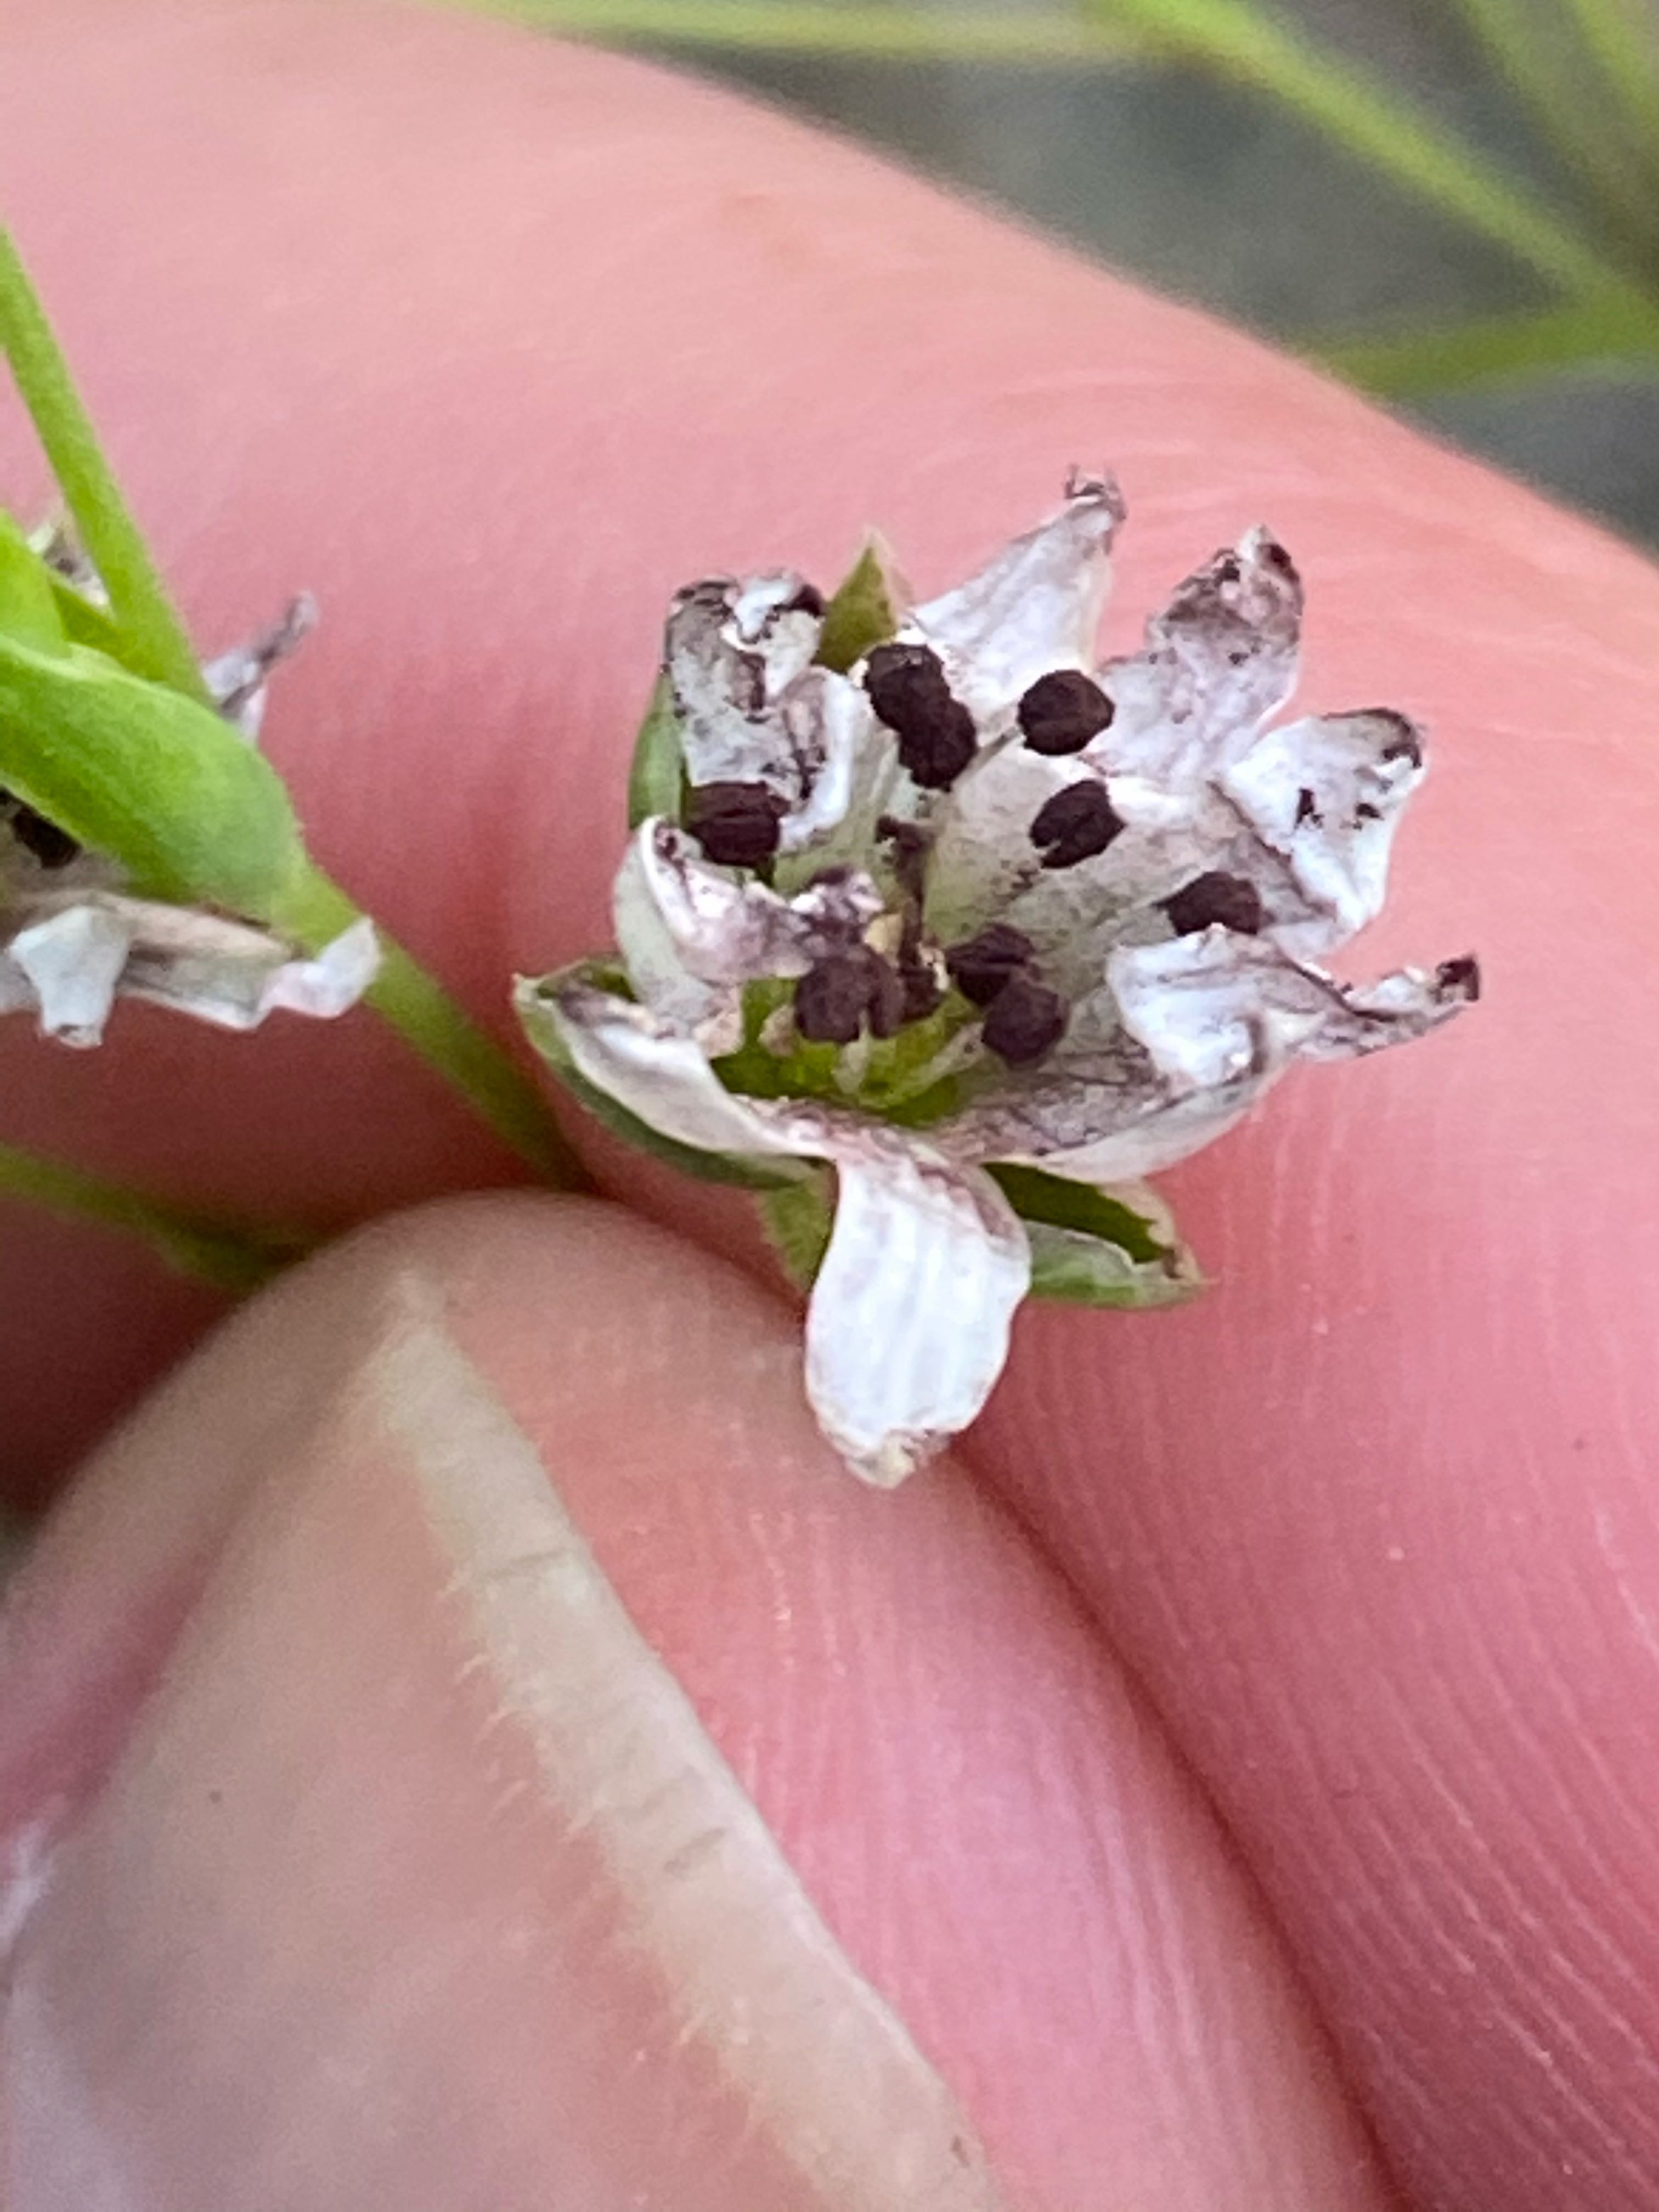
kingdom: Fungi
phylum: Basidiomycota
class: Microbotryomycetes
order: Microbotryales
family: Microbotryaceae
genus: Microbotryum
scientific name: Microbotryum stellariae
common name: fladstjerne-støvbladrust
